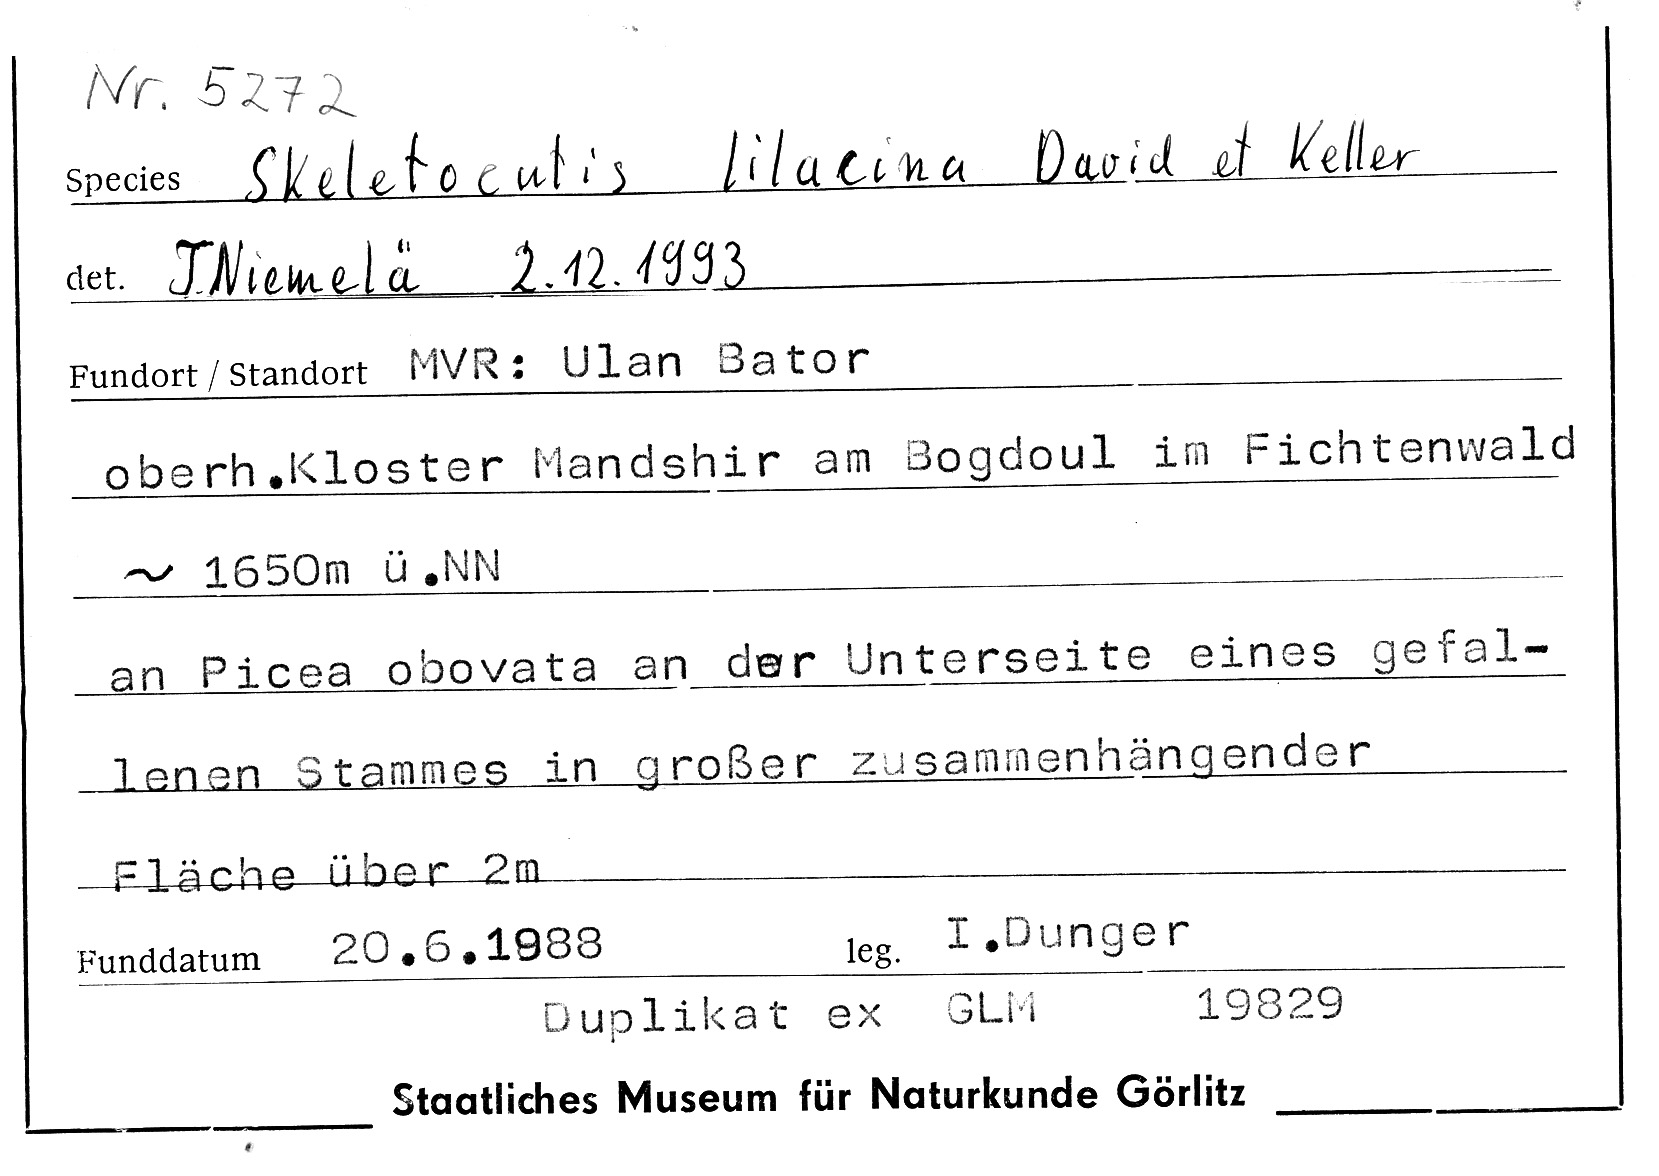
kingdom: Plantae
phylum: Tracheophyta
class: Pinopsida
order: Pinales
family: Pinaceae
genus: Picea
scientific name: Picea obovata
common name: Siberian spruce
